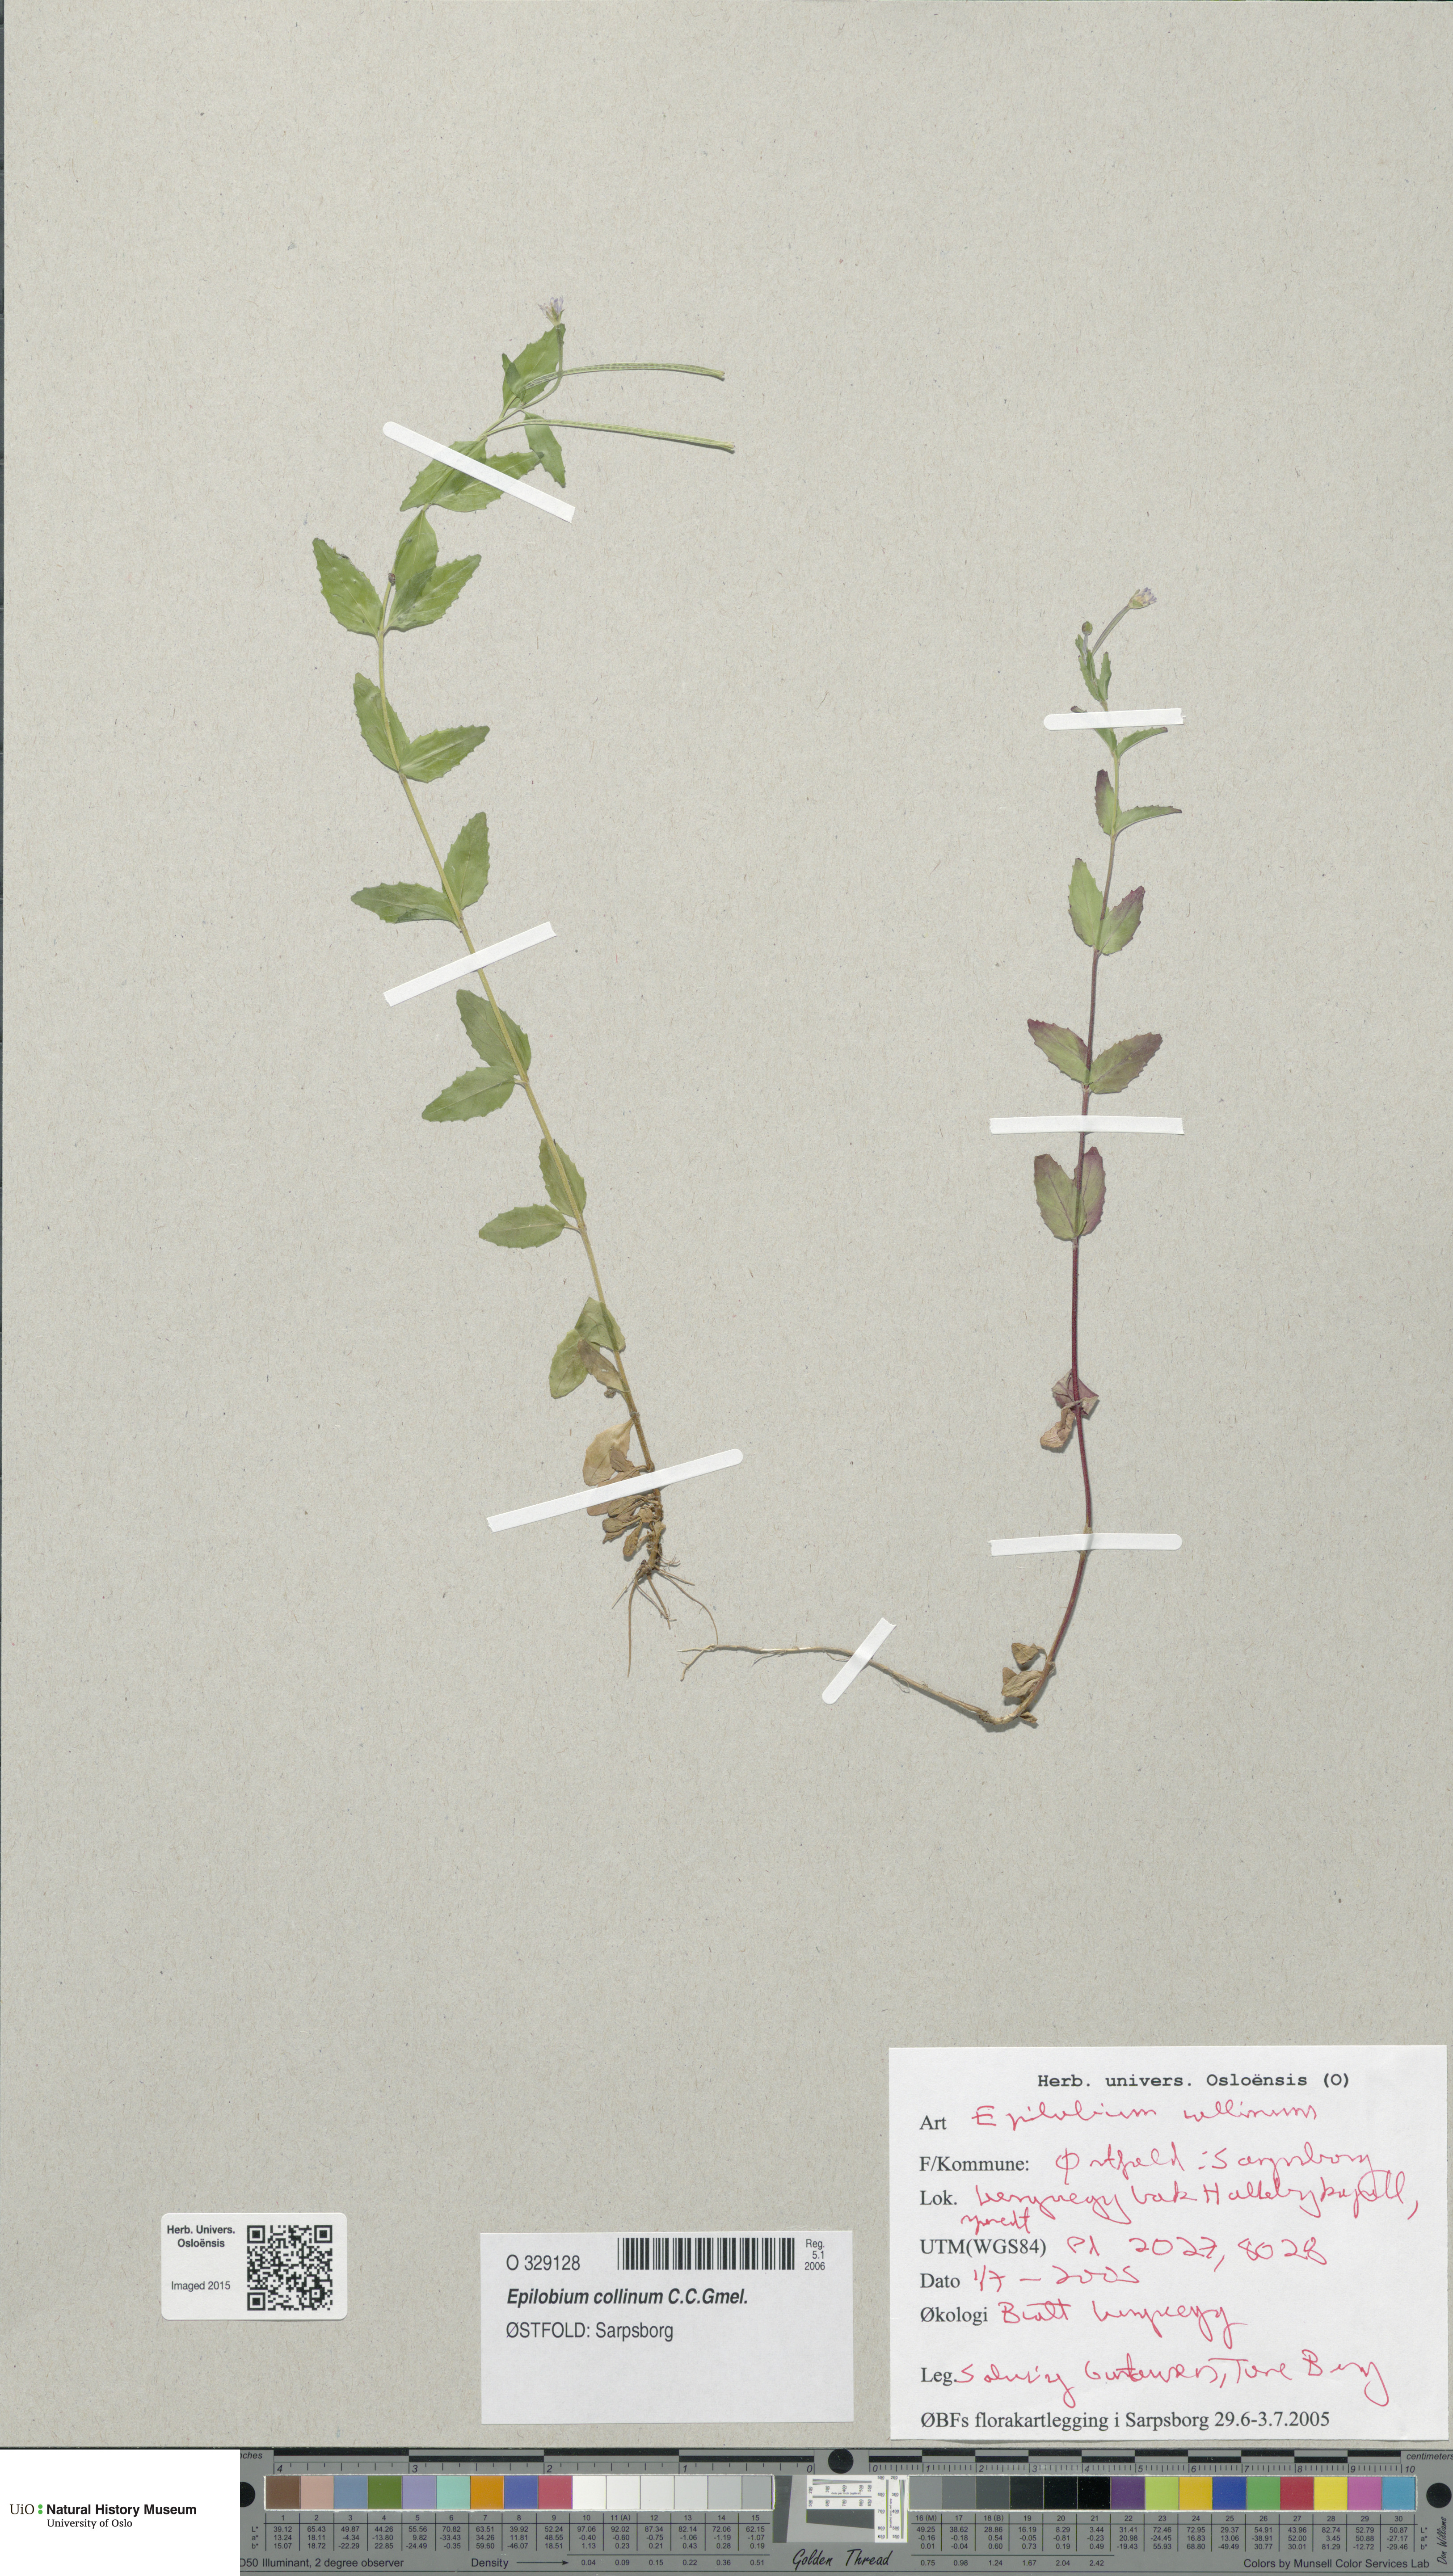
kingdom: Plantae
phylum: Tracheophyta
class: Magnoliopsida
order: Myrtales
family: Onagraceae
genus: Epilobium
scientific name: Epilobium collinum
